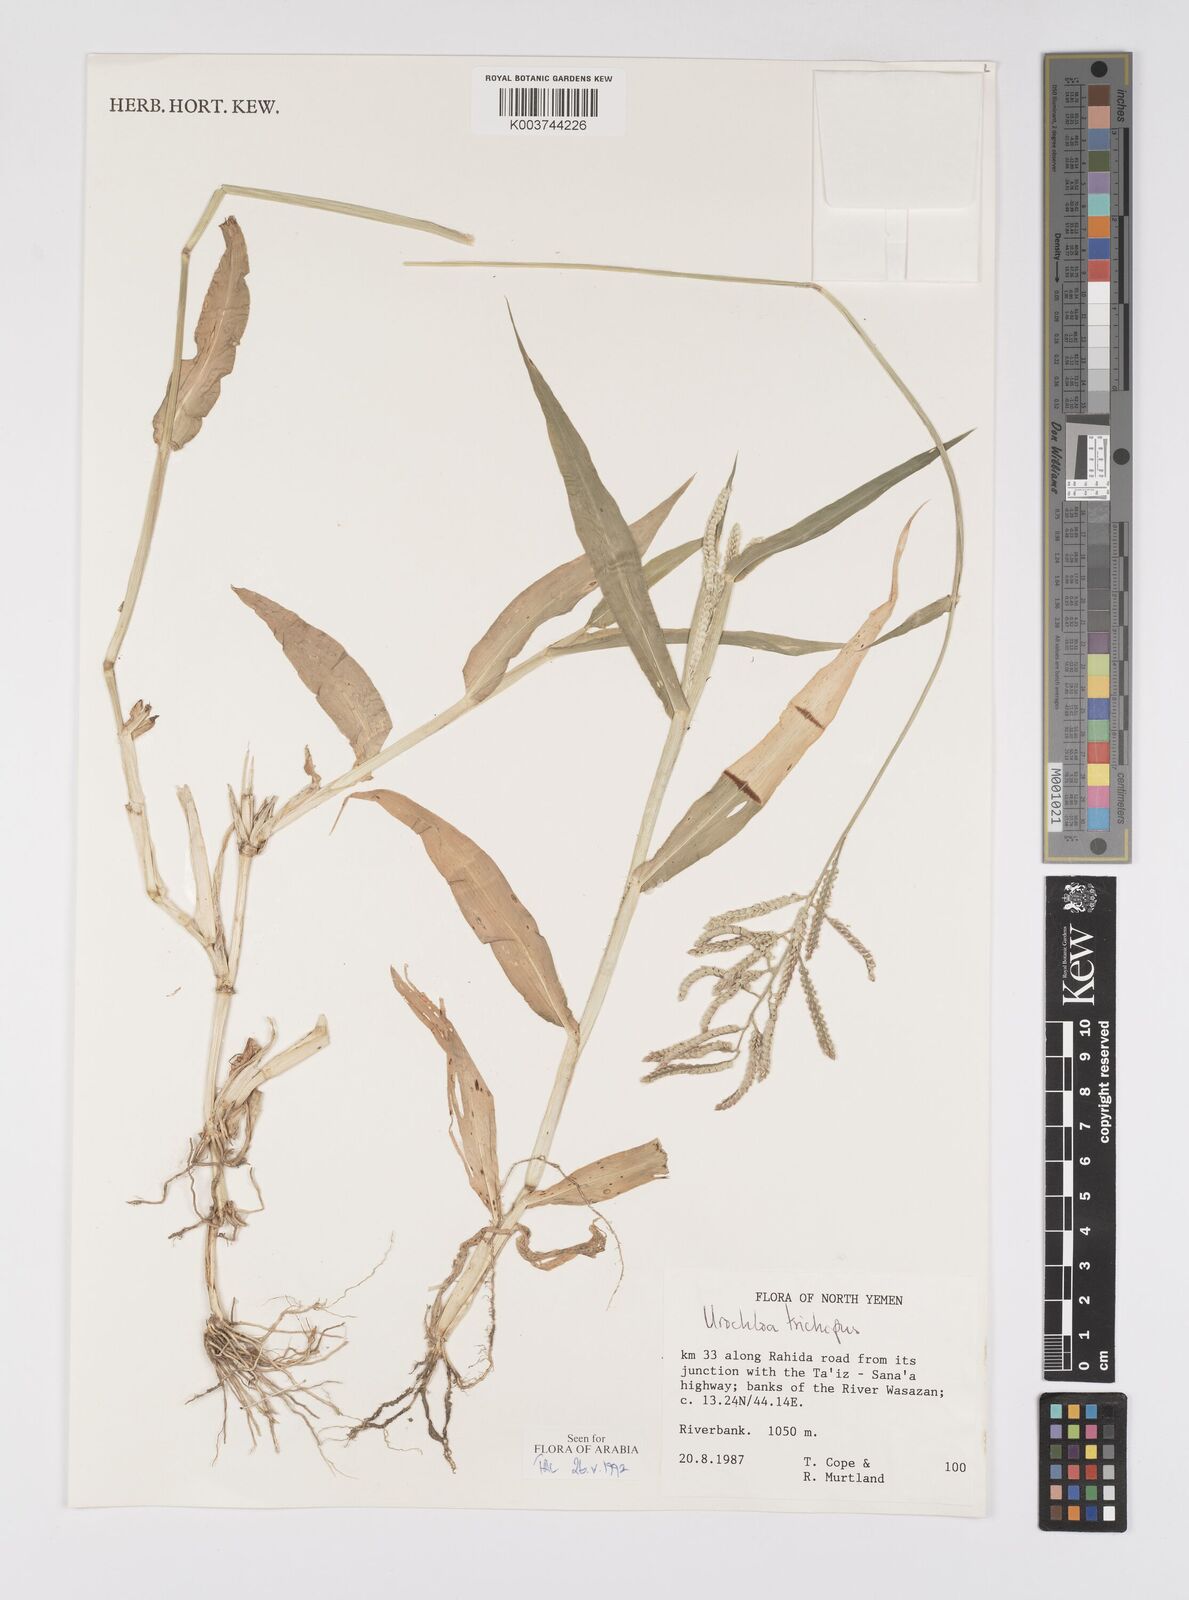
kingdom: Plantae
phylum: Tracheophyta
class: Liliopsida
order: Poales
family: Poaceae
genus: Urochloa
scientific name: Urochloa trichopus
